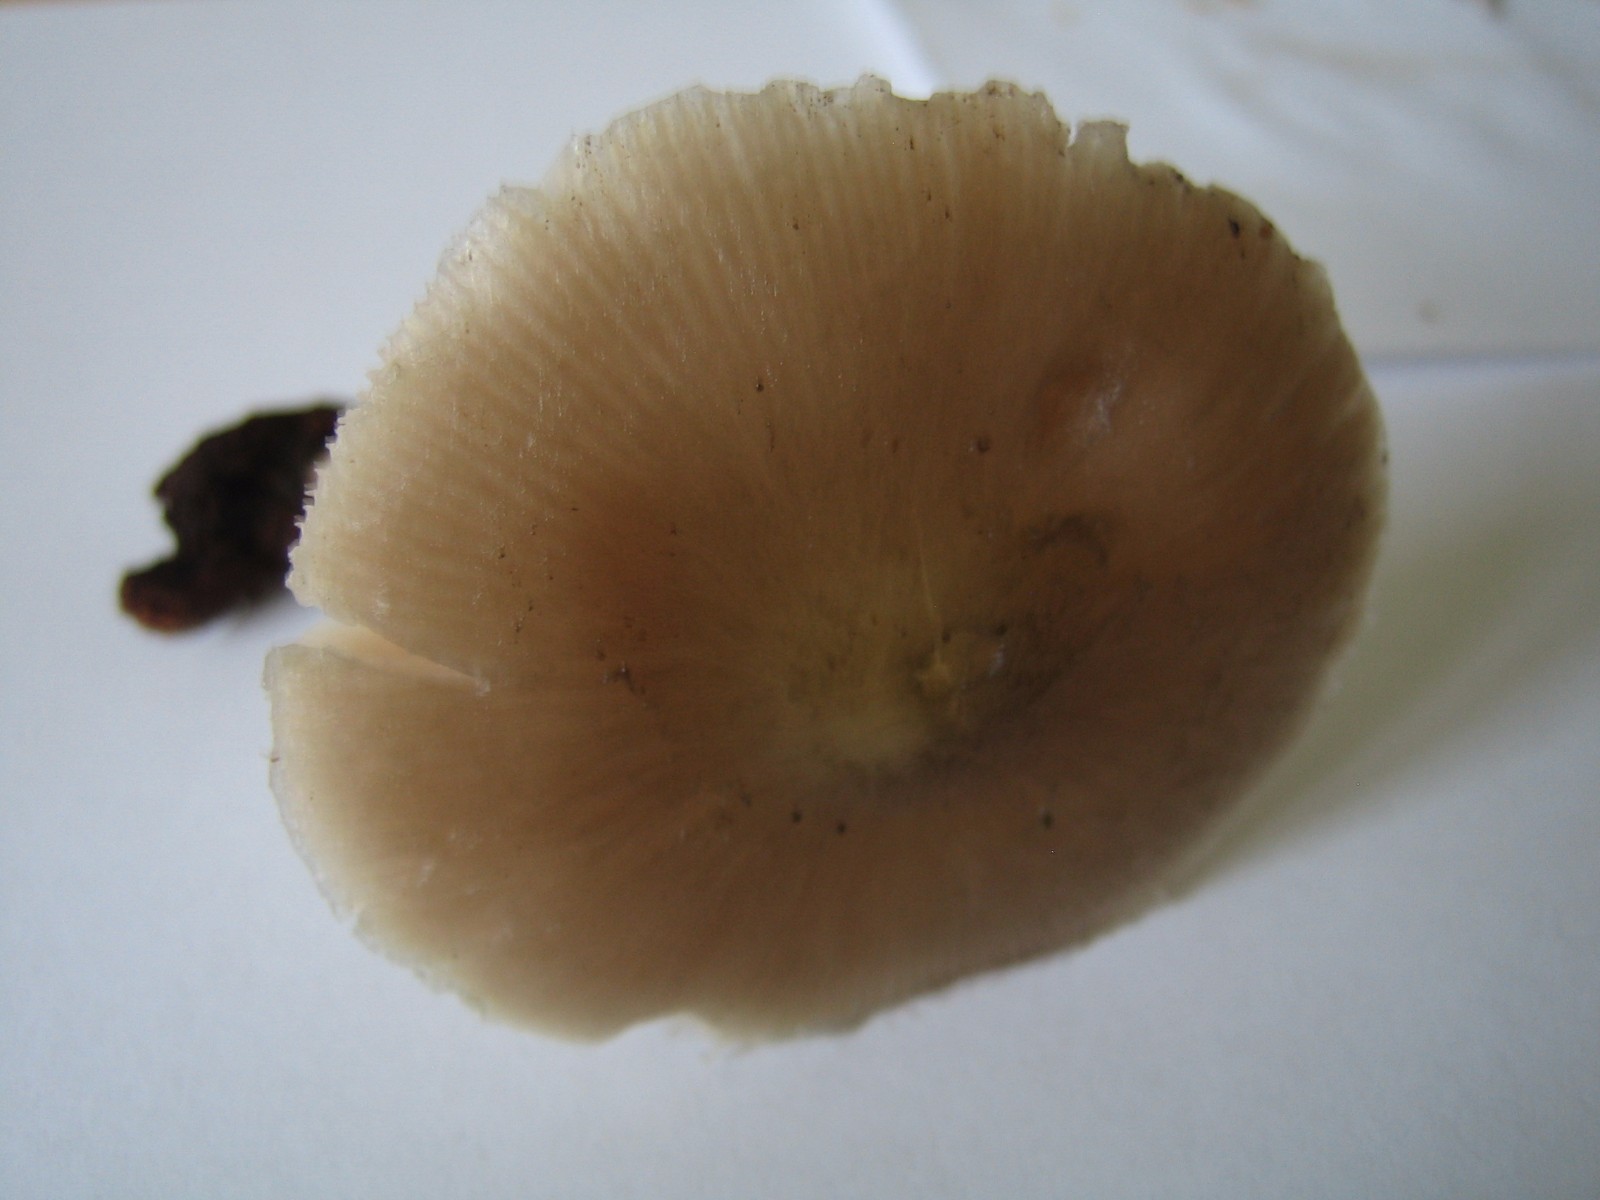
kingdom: Fungi
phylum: Basidiomycota
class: Agaricomycetes
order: Agaricales
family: Pluteaceae
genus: Pluteus
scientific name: Pluteus salicinus
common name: stiv skærmhat
